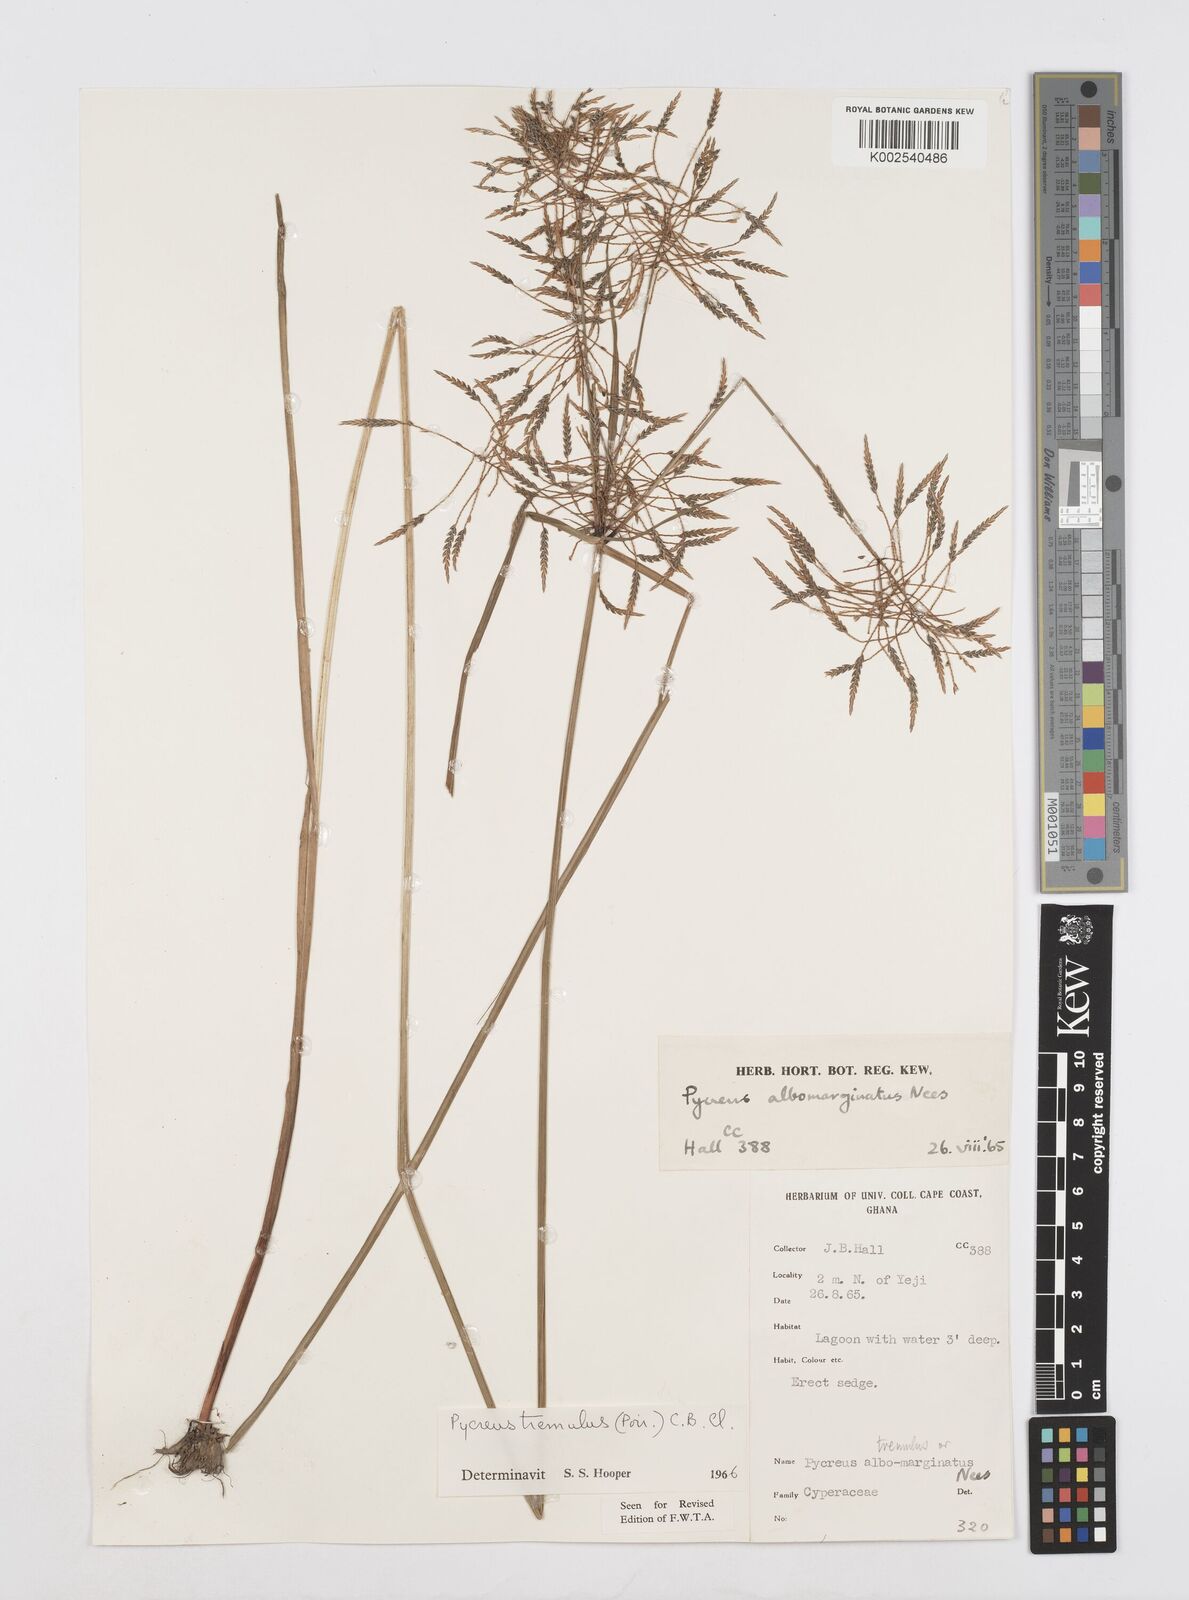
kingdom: Plantae
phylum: Tracheophyta
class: Liliopsida
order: Poales
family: Cyperaceae
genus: Cyperus
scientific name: Cyperus macrostachyos
